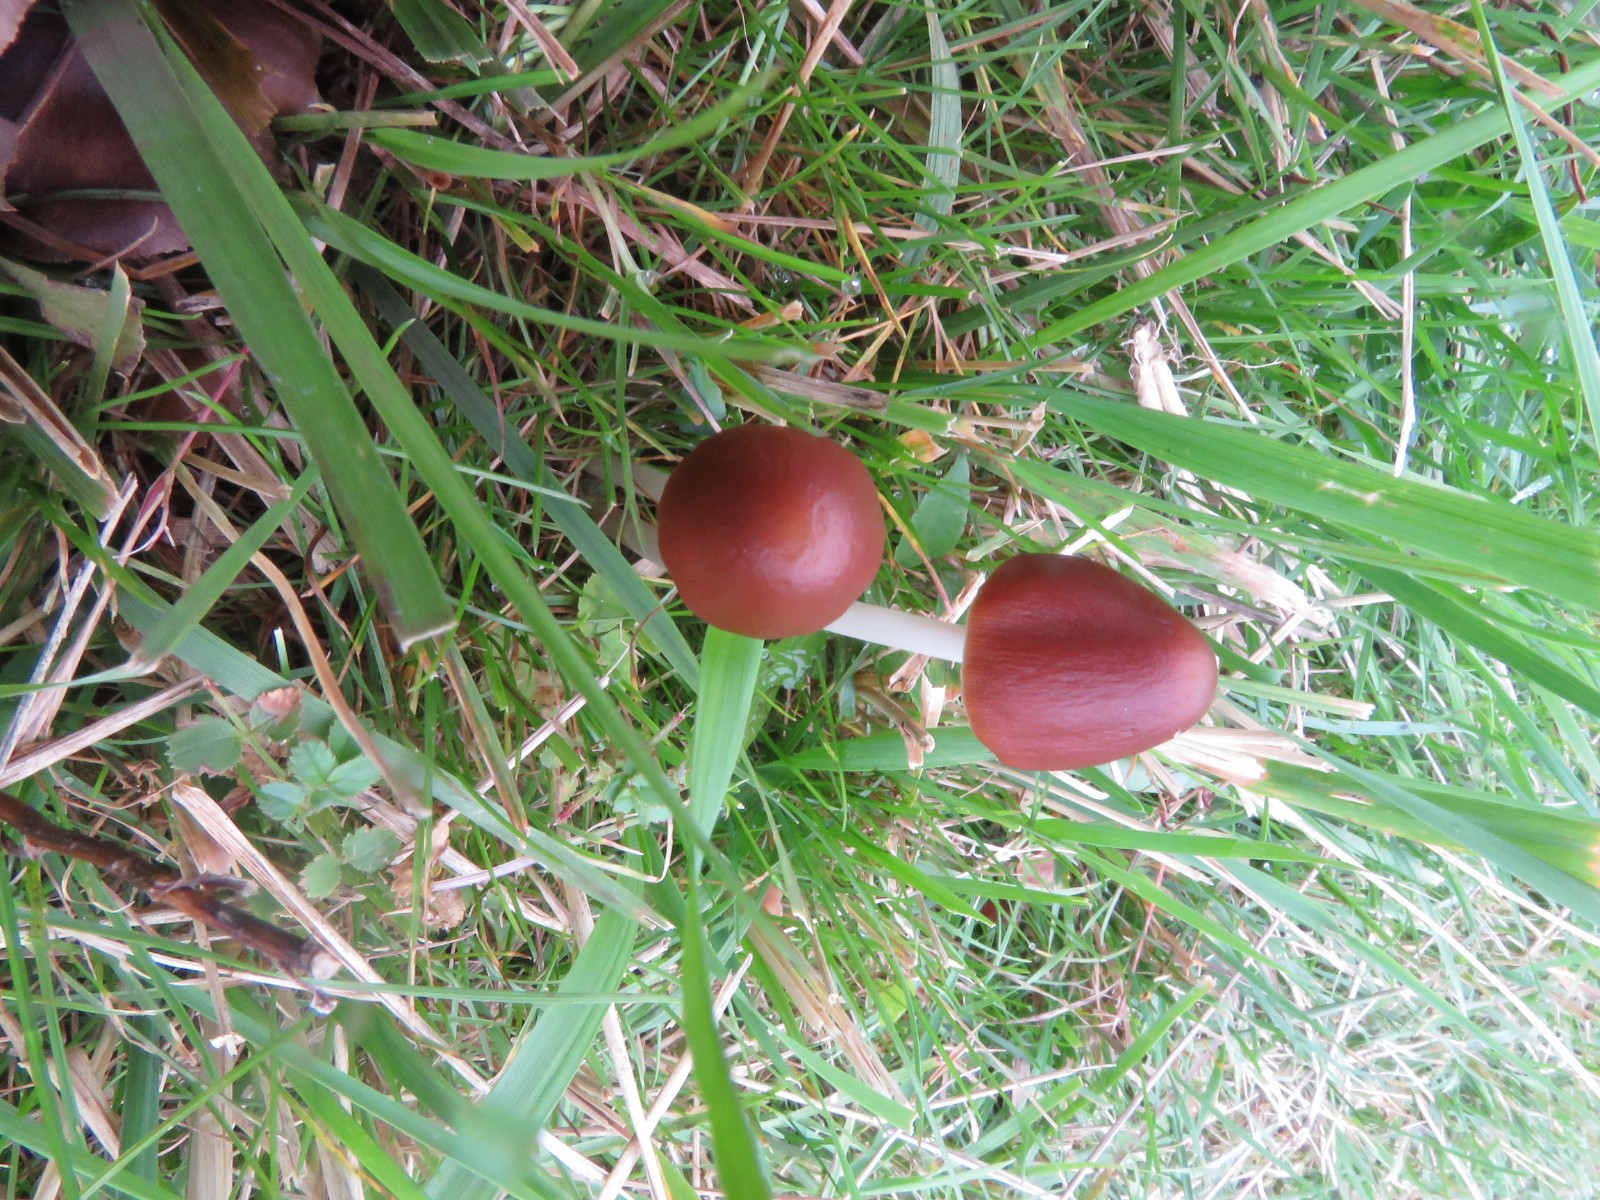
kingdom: Fungi
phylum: Basidiomycota
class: Agaricomycetes
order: Agaricales
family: Psathyrellaceae
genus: Parasola
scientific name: Parasola conopilea
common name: kegle-hjulhat
